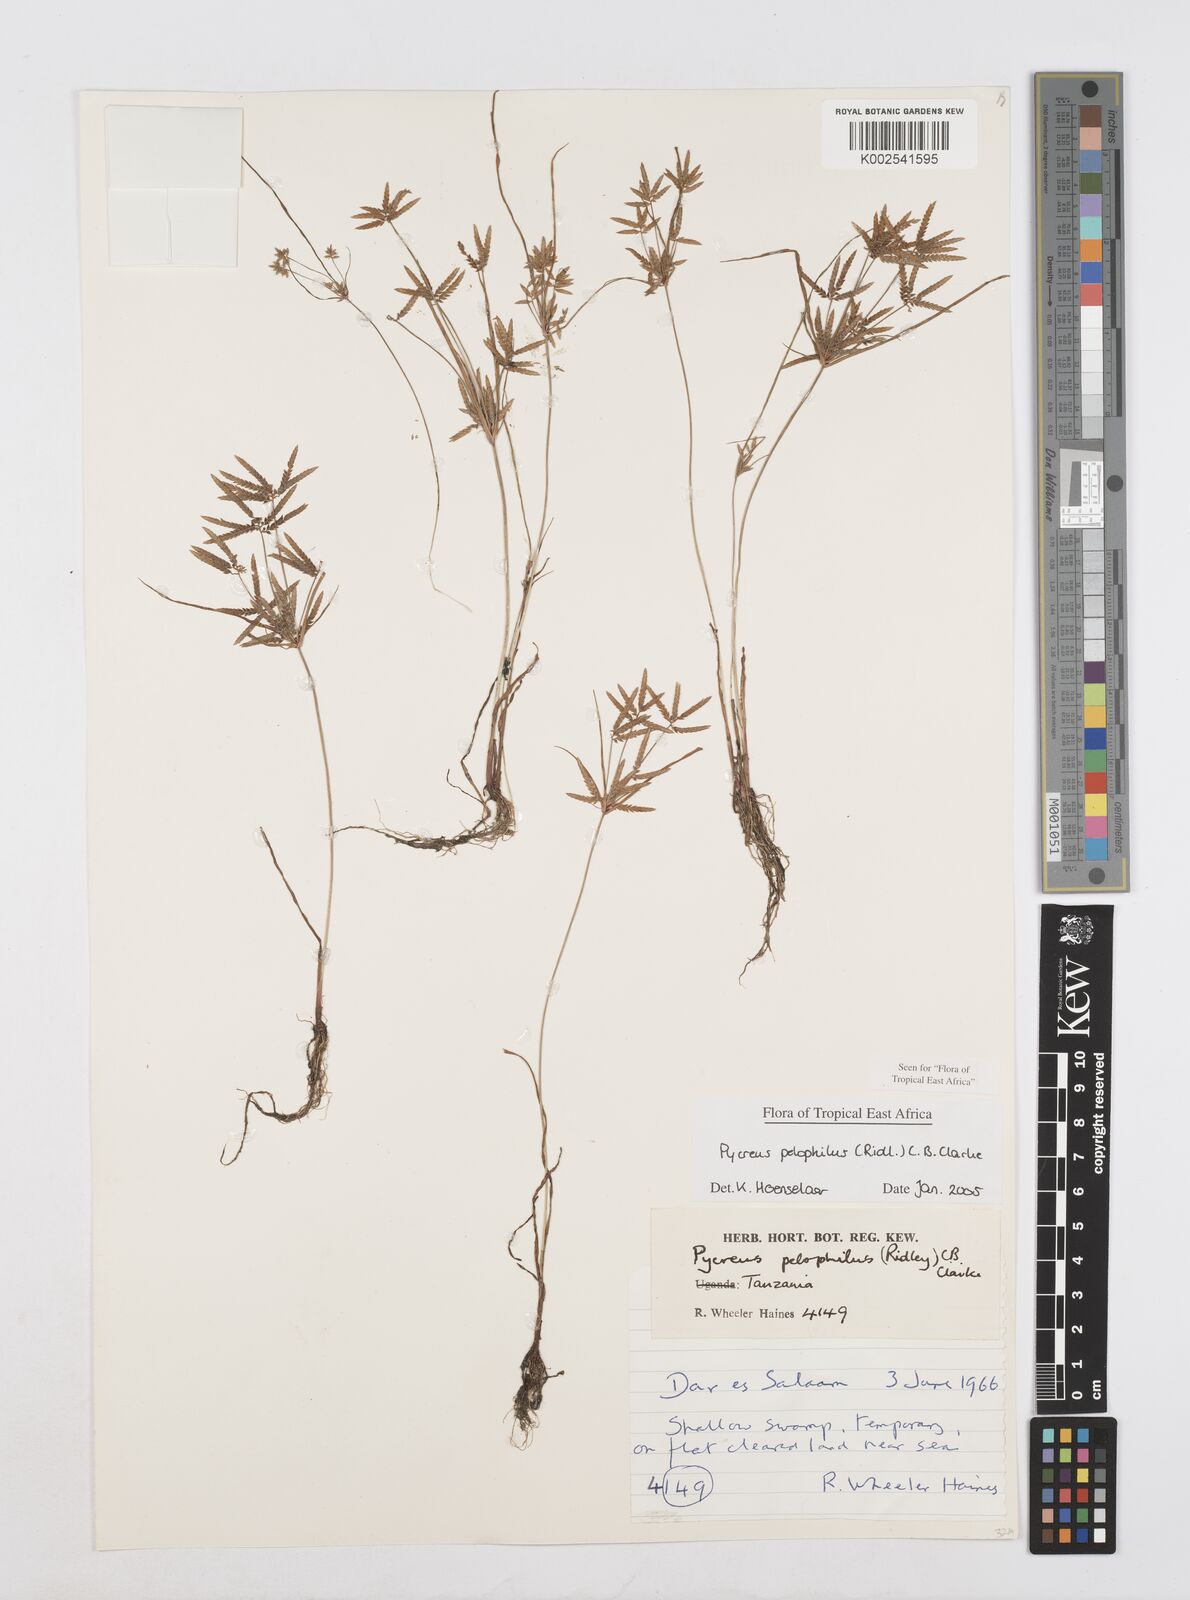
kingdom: Plantae
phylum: Tracheophyta
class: Liliopsida
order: Poales
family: Cyperaceae
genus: Cyperus
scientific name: Cyperus pelophilus
